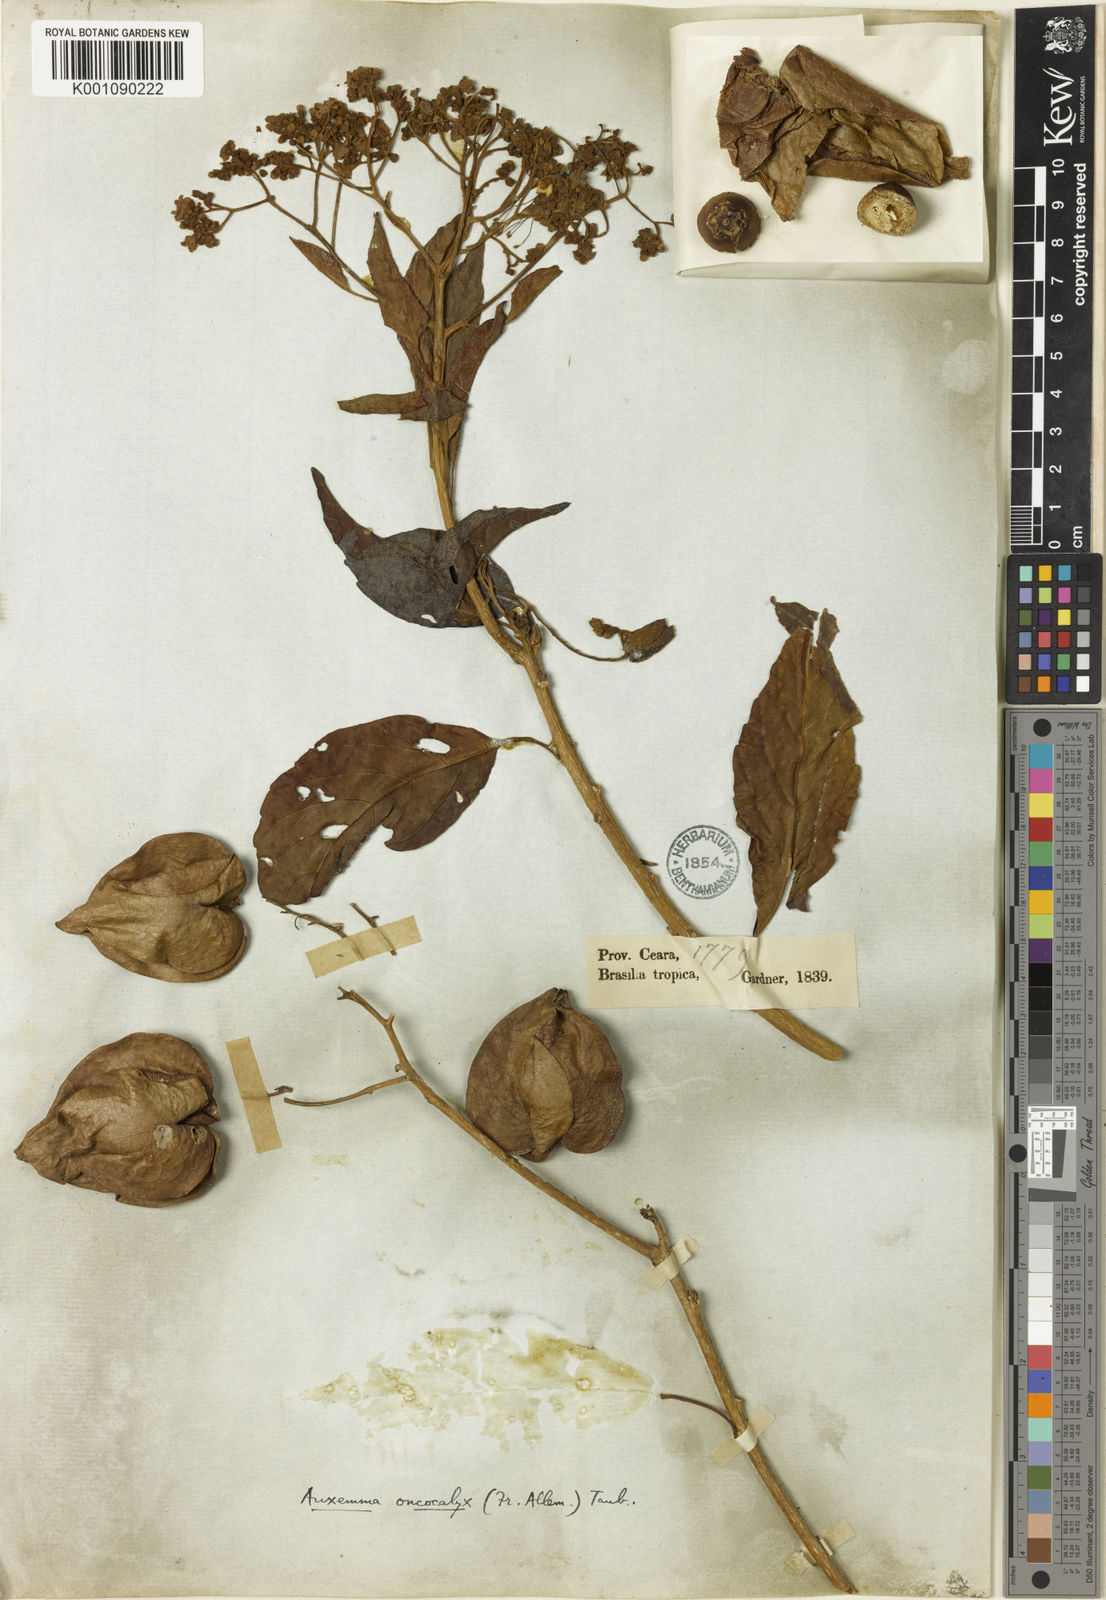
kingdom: Plantae
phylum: Tracheophyta
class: Magnoliopsida
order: Boraginales
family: Cordiaceae
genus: Cordia
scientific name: Cordia
